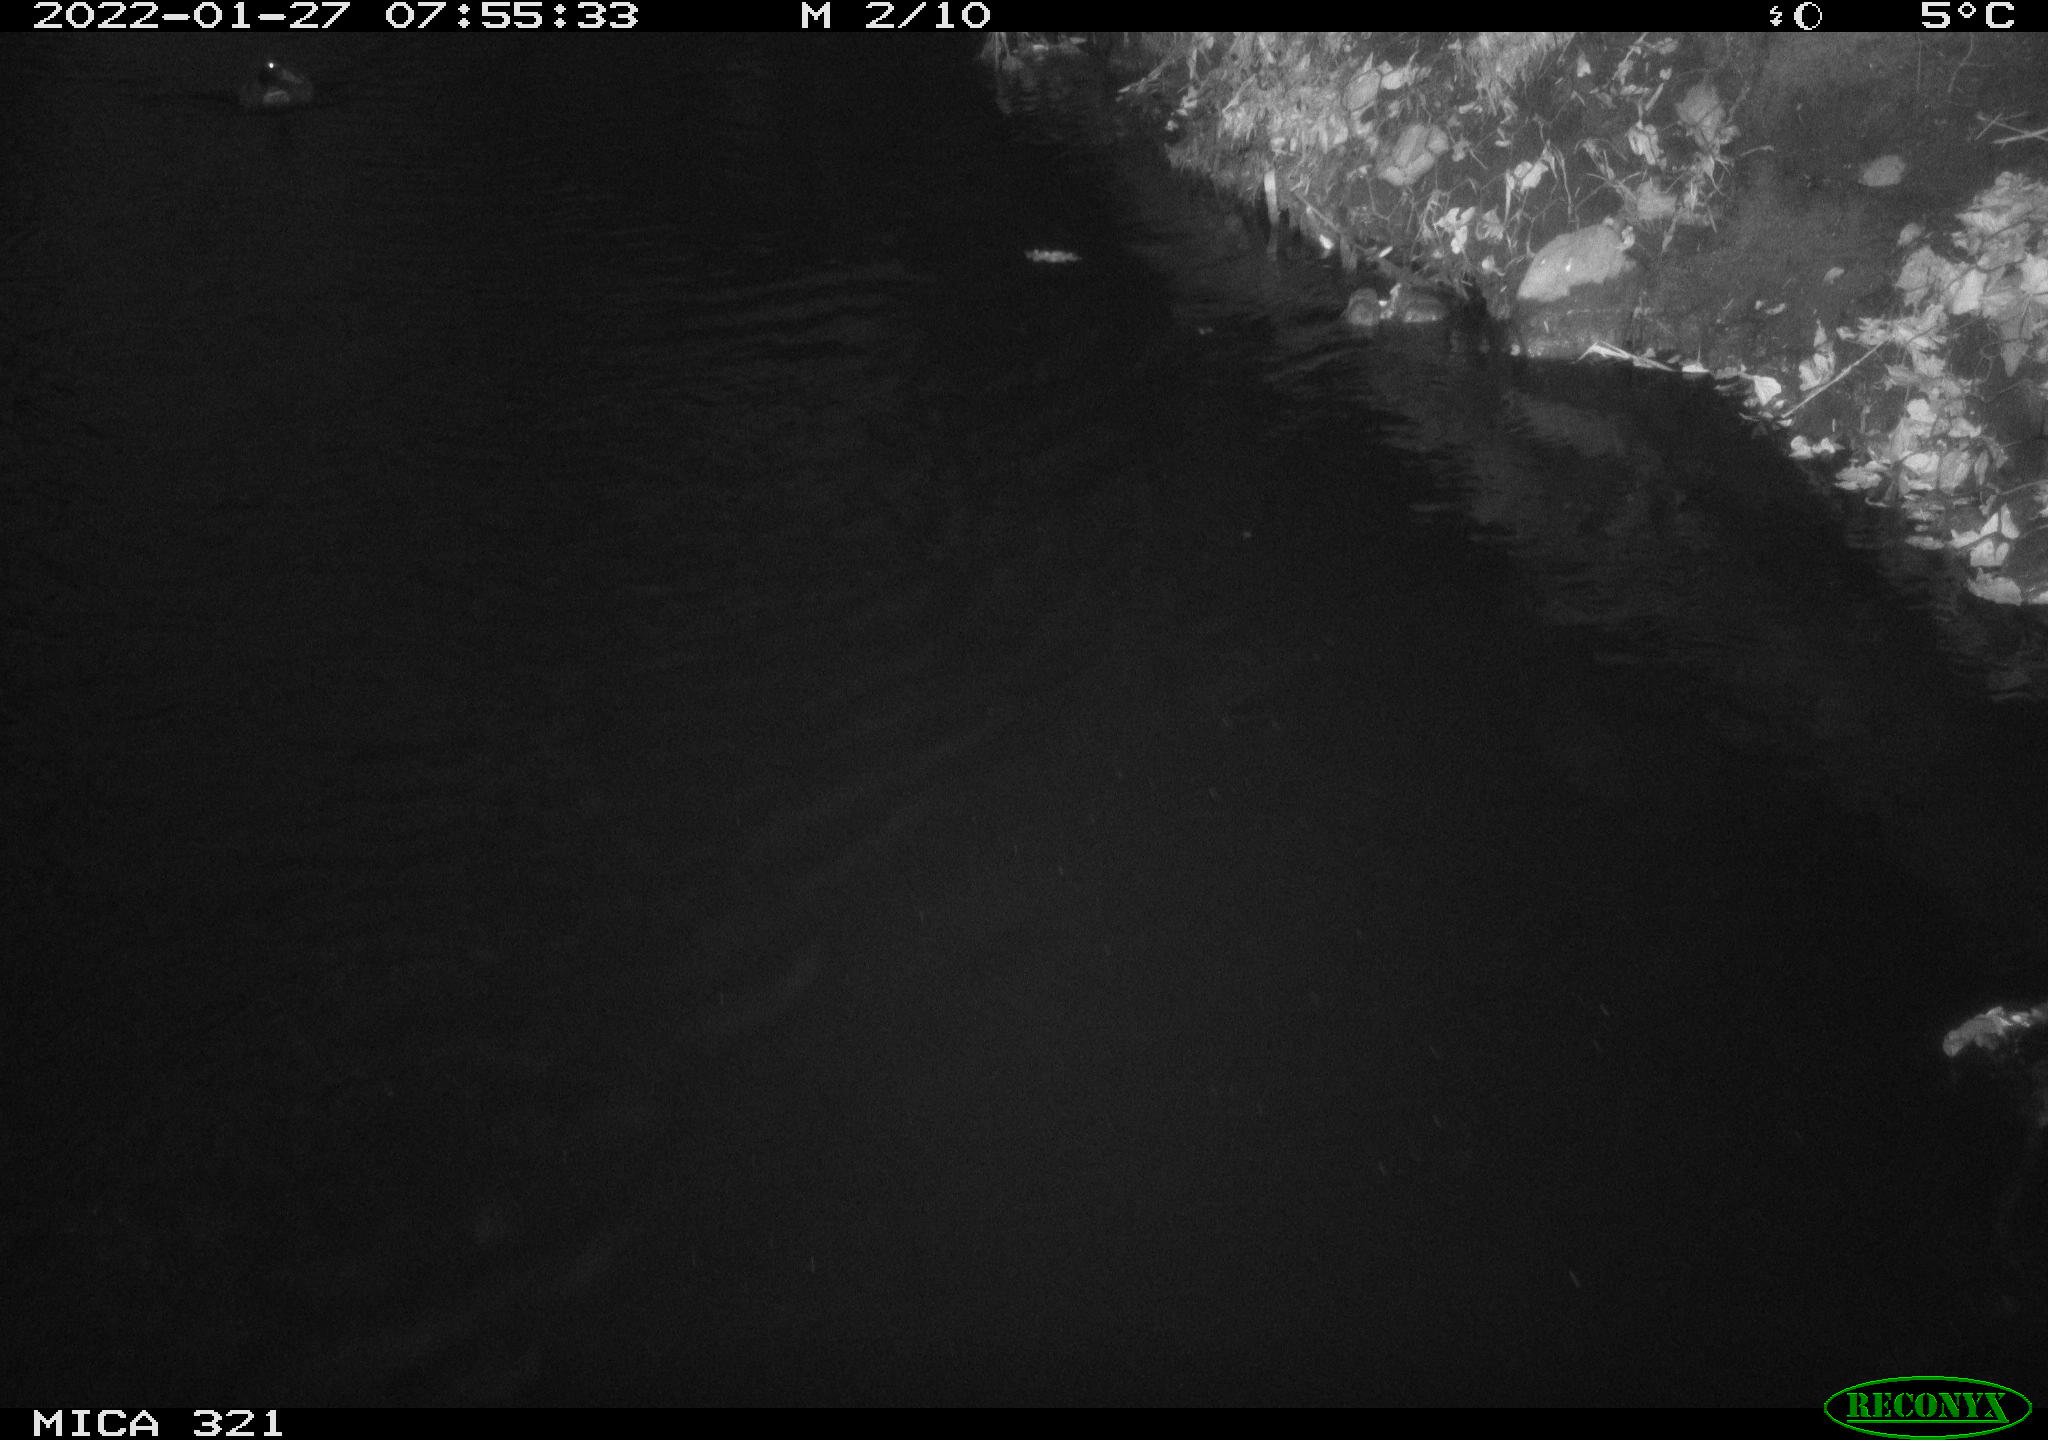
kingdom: Animalia
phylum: Chordata
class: Aves
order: Anseriformes
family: Anatidae
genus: Anas
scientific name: Anas
